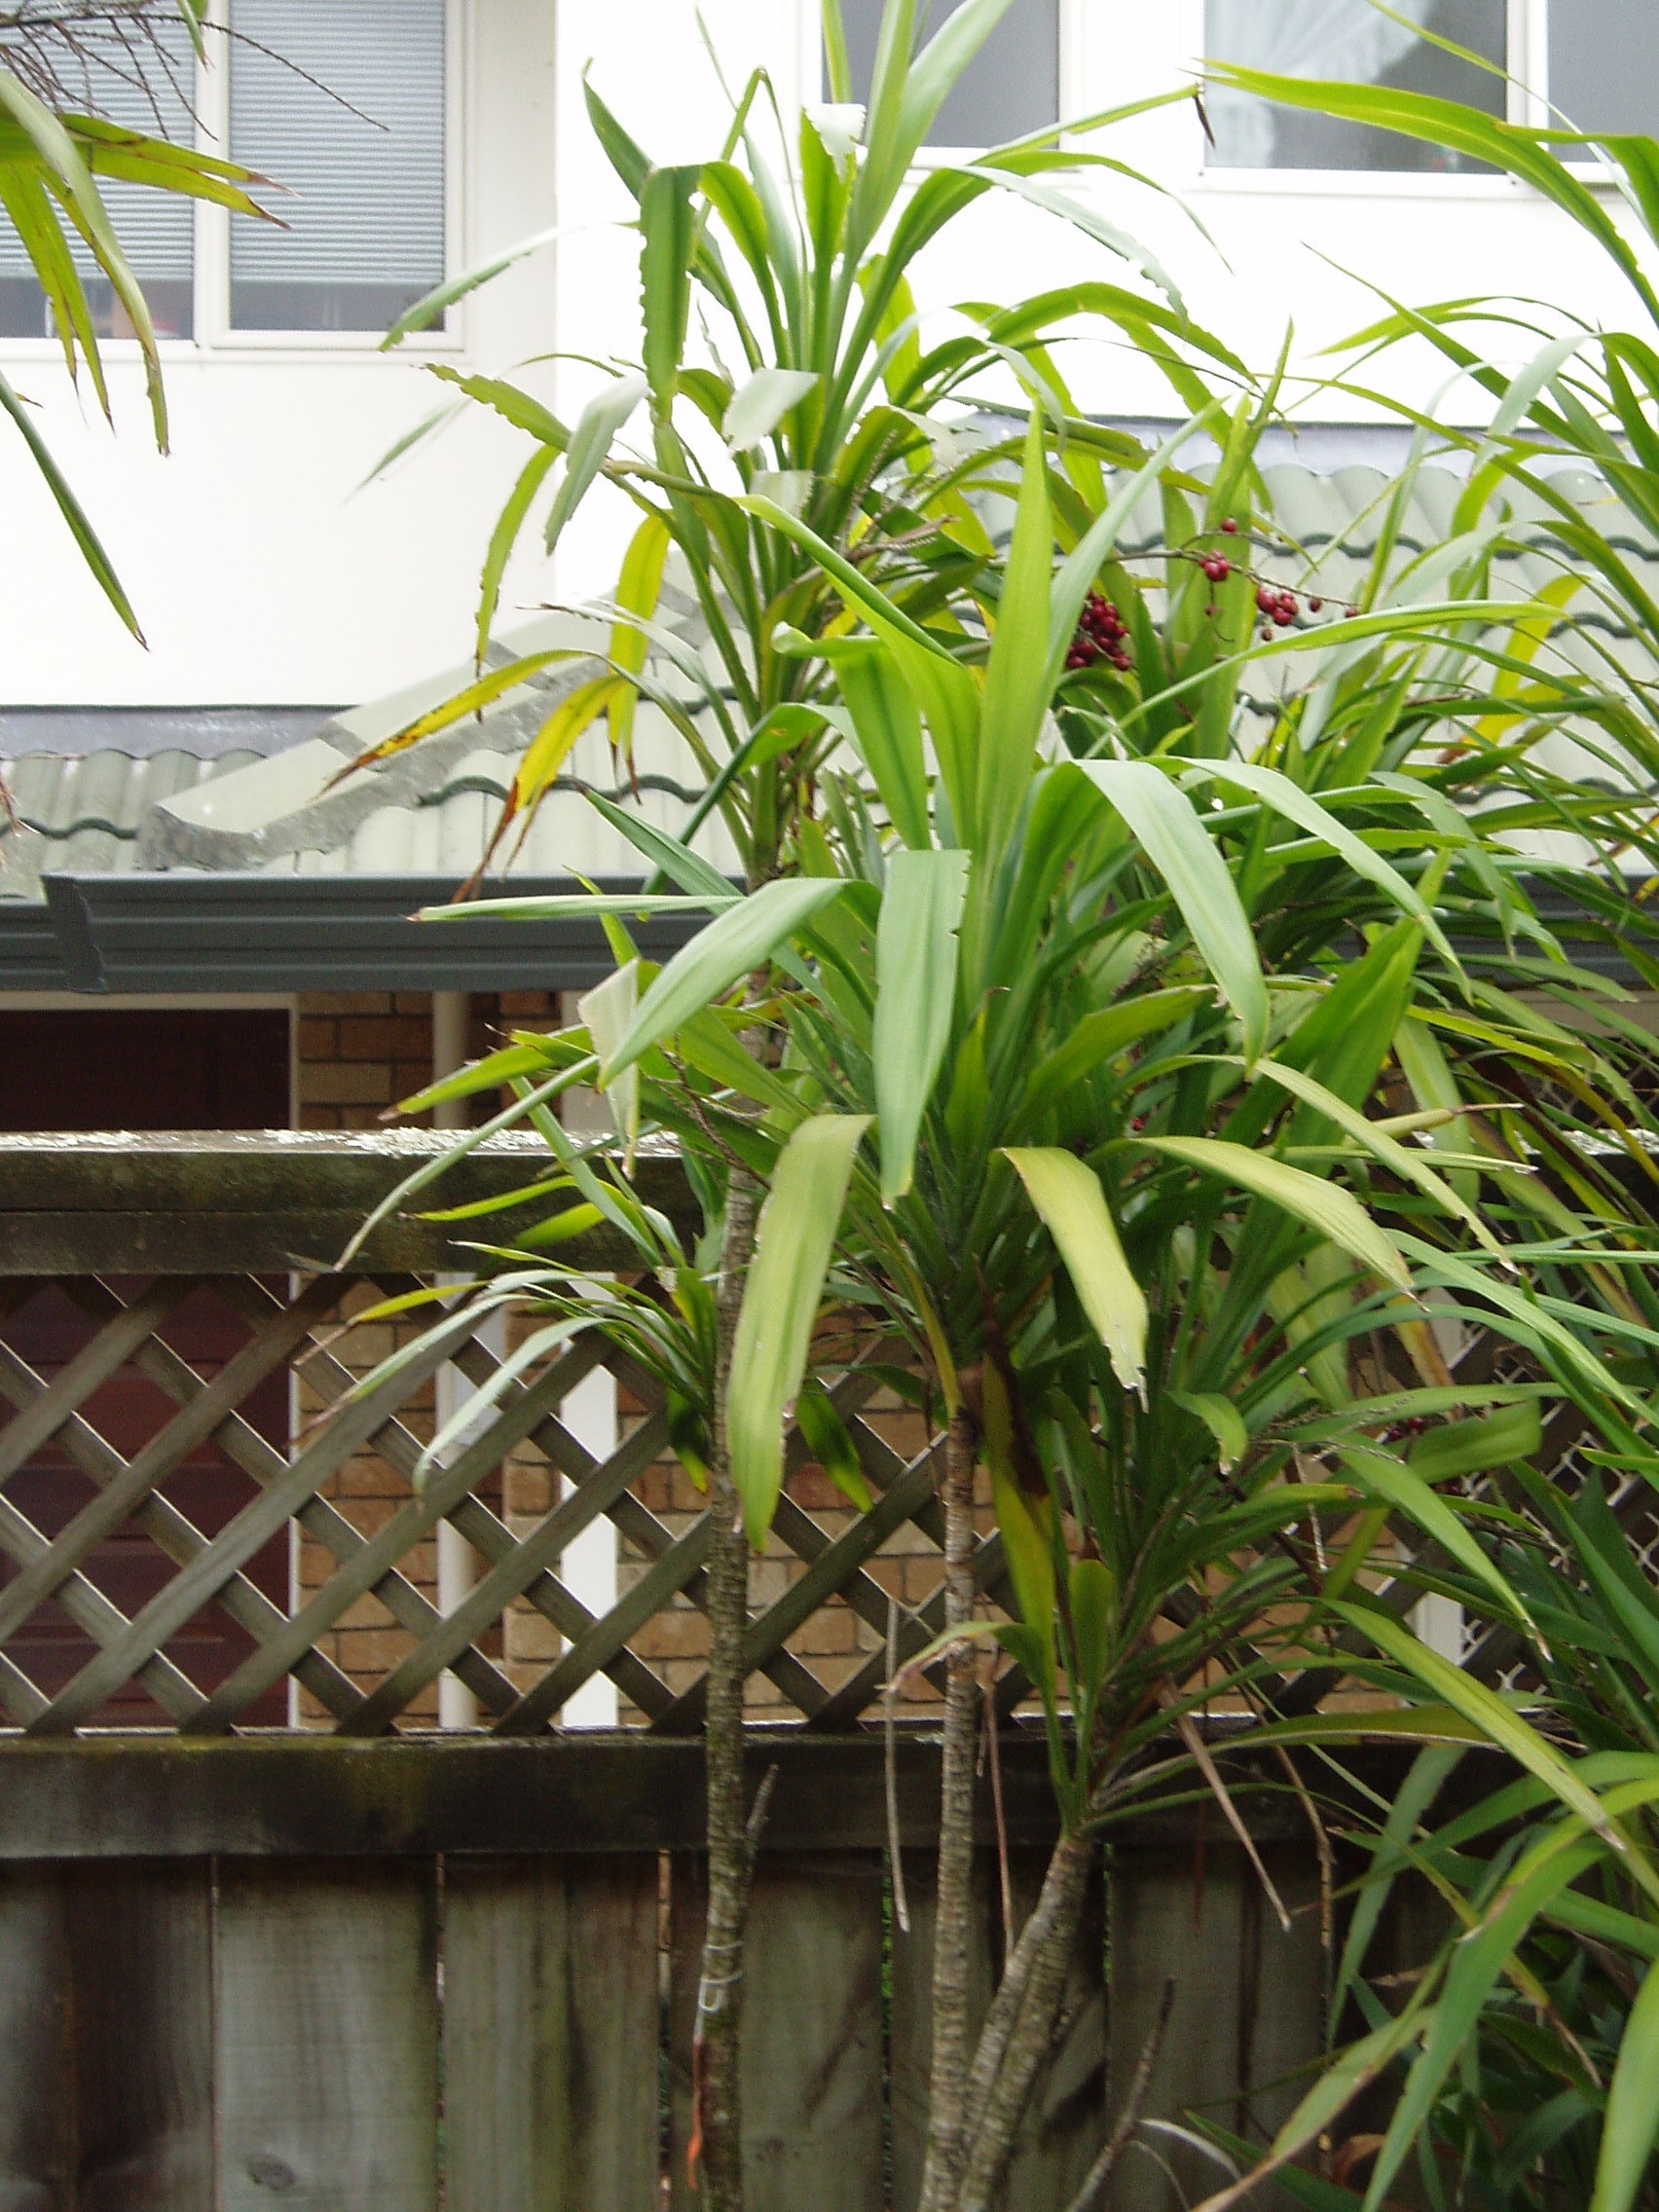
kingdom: Plantae
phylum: Tracheophyta
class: Liliopsida
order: Asparagales
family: Asparagaceae
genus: Cordyline
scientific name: Cordyline rubra
